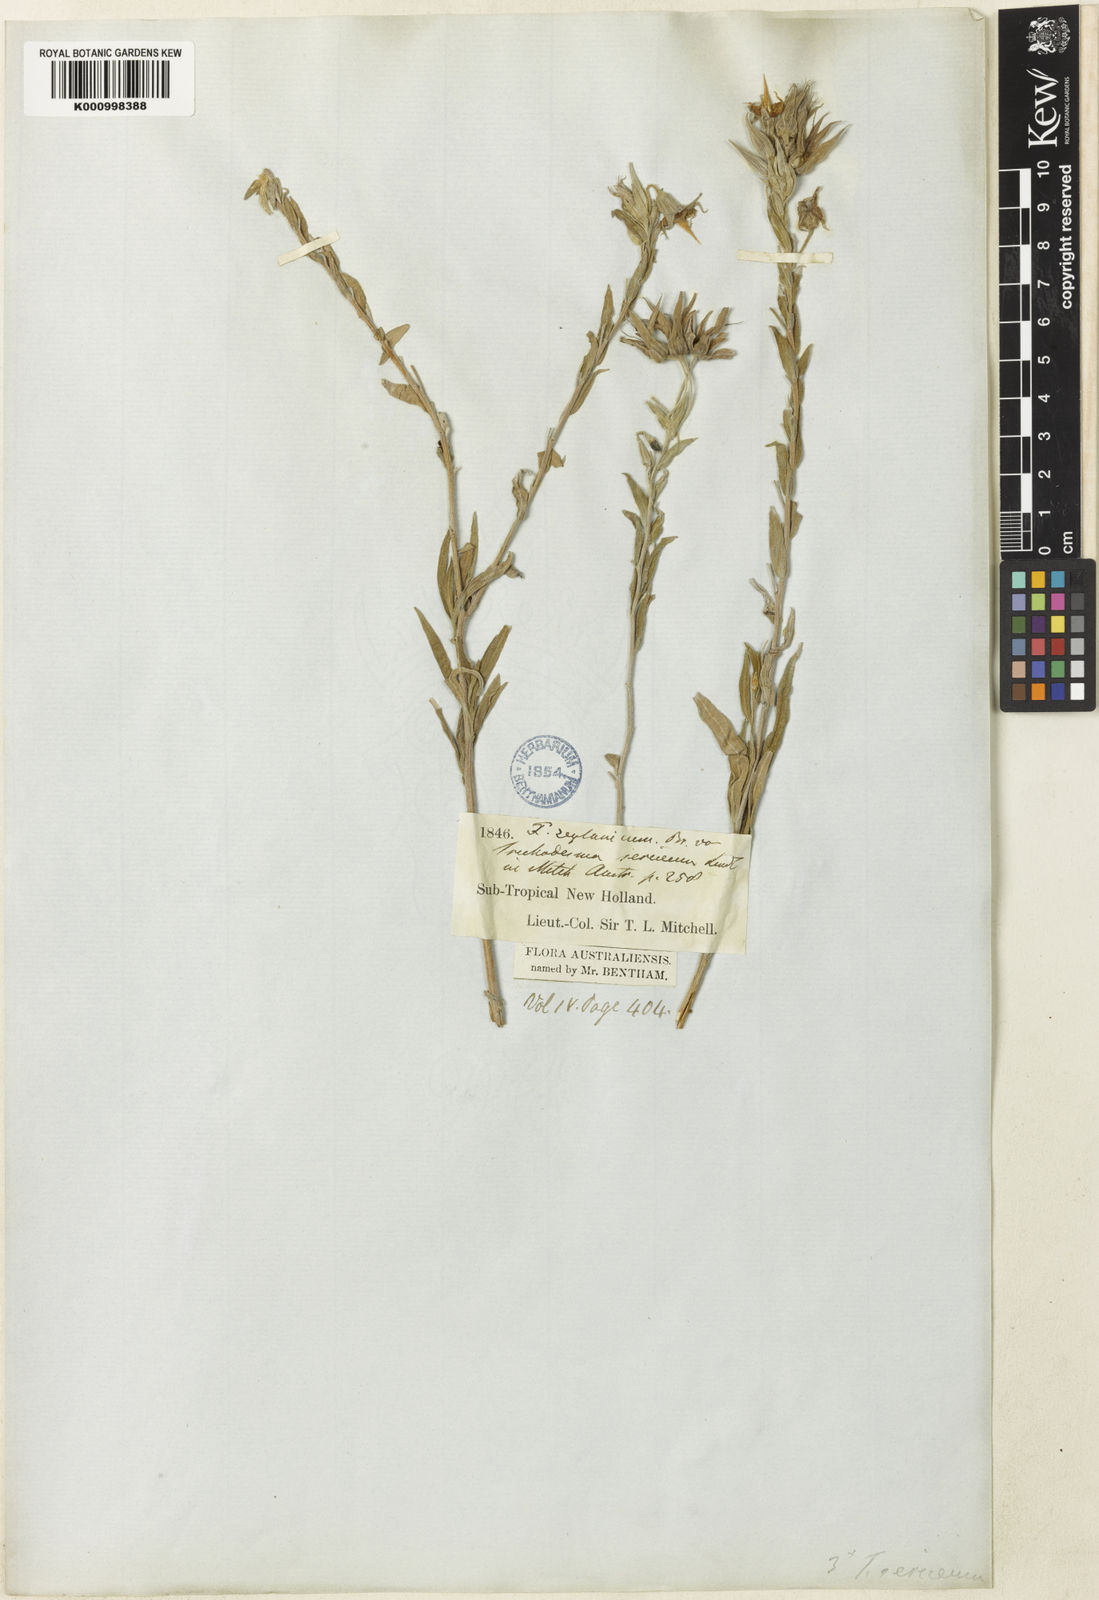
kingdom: Plantae
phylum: Tracheophyta
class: Magnoliopsida
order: Boraginales
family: Boraginaceae
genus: Trichodesma
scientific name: Trichodesma zeylanicum
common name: Camelbush
